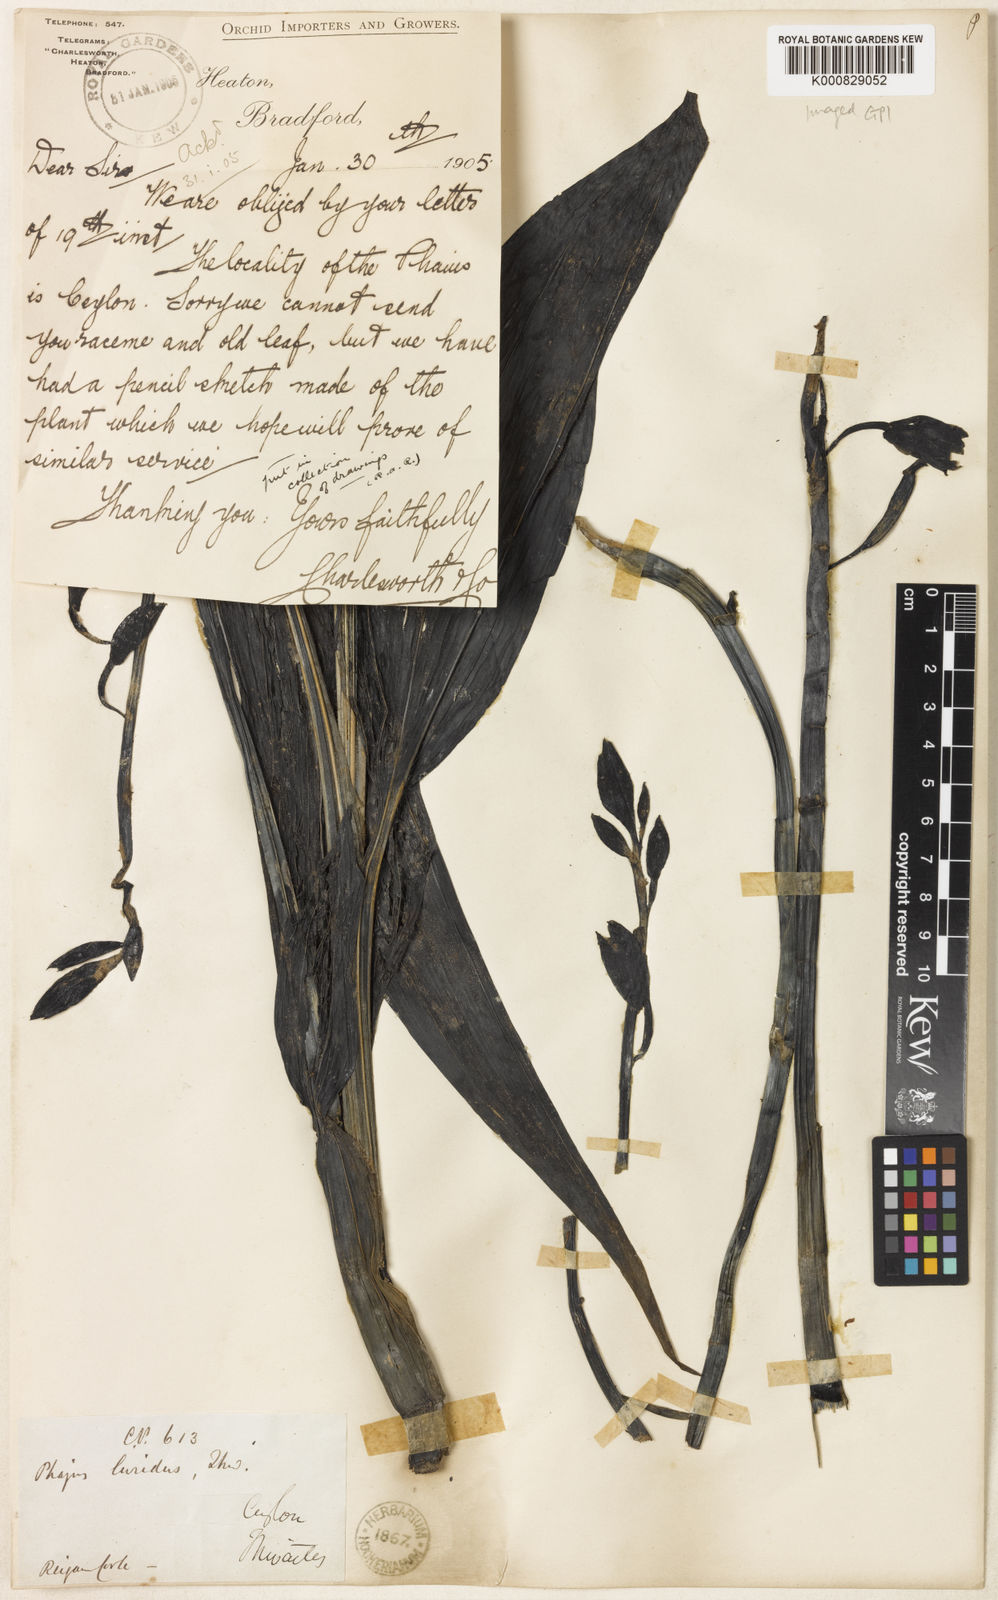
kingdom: Plantae
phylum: Tracheophyta
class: Liliopsida
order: Asparagales
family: Orchidaceae
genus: Calanthe
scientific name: Calanthe testacea
